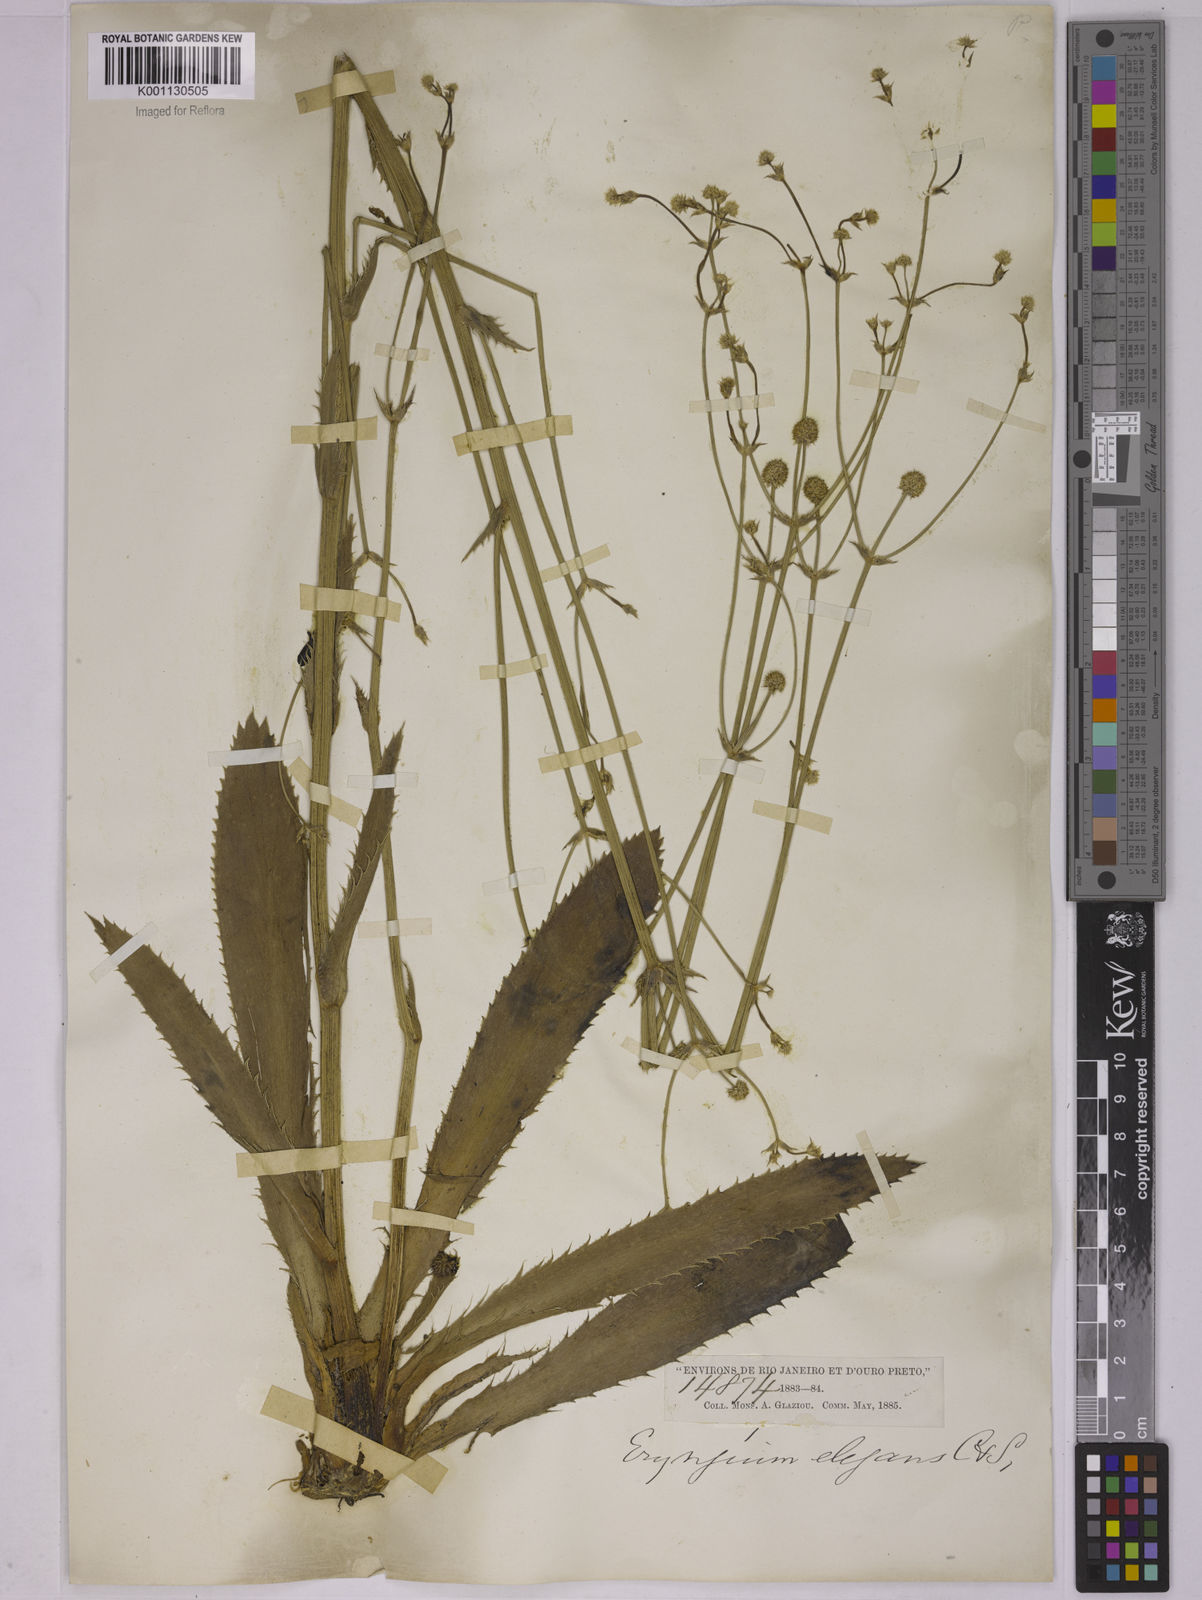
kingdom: Plantae
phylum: Tracheophyta
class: Magnoliopsida
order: Apiales
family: Apiaceae
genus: Eryngium
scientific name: Eryngium elegans
